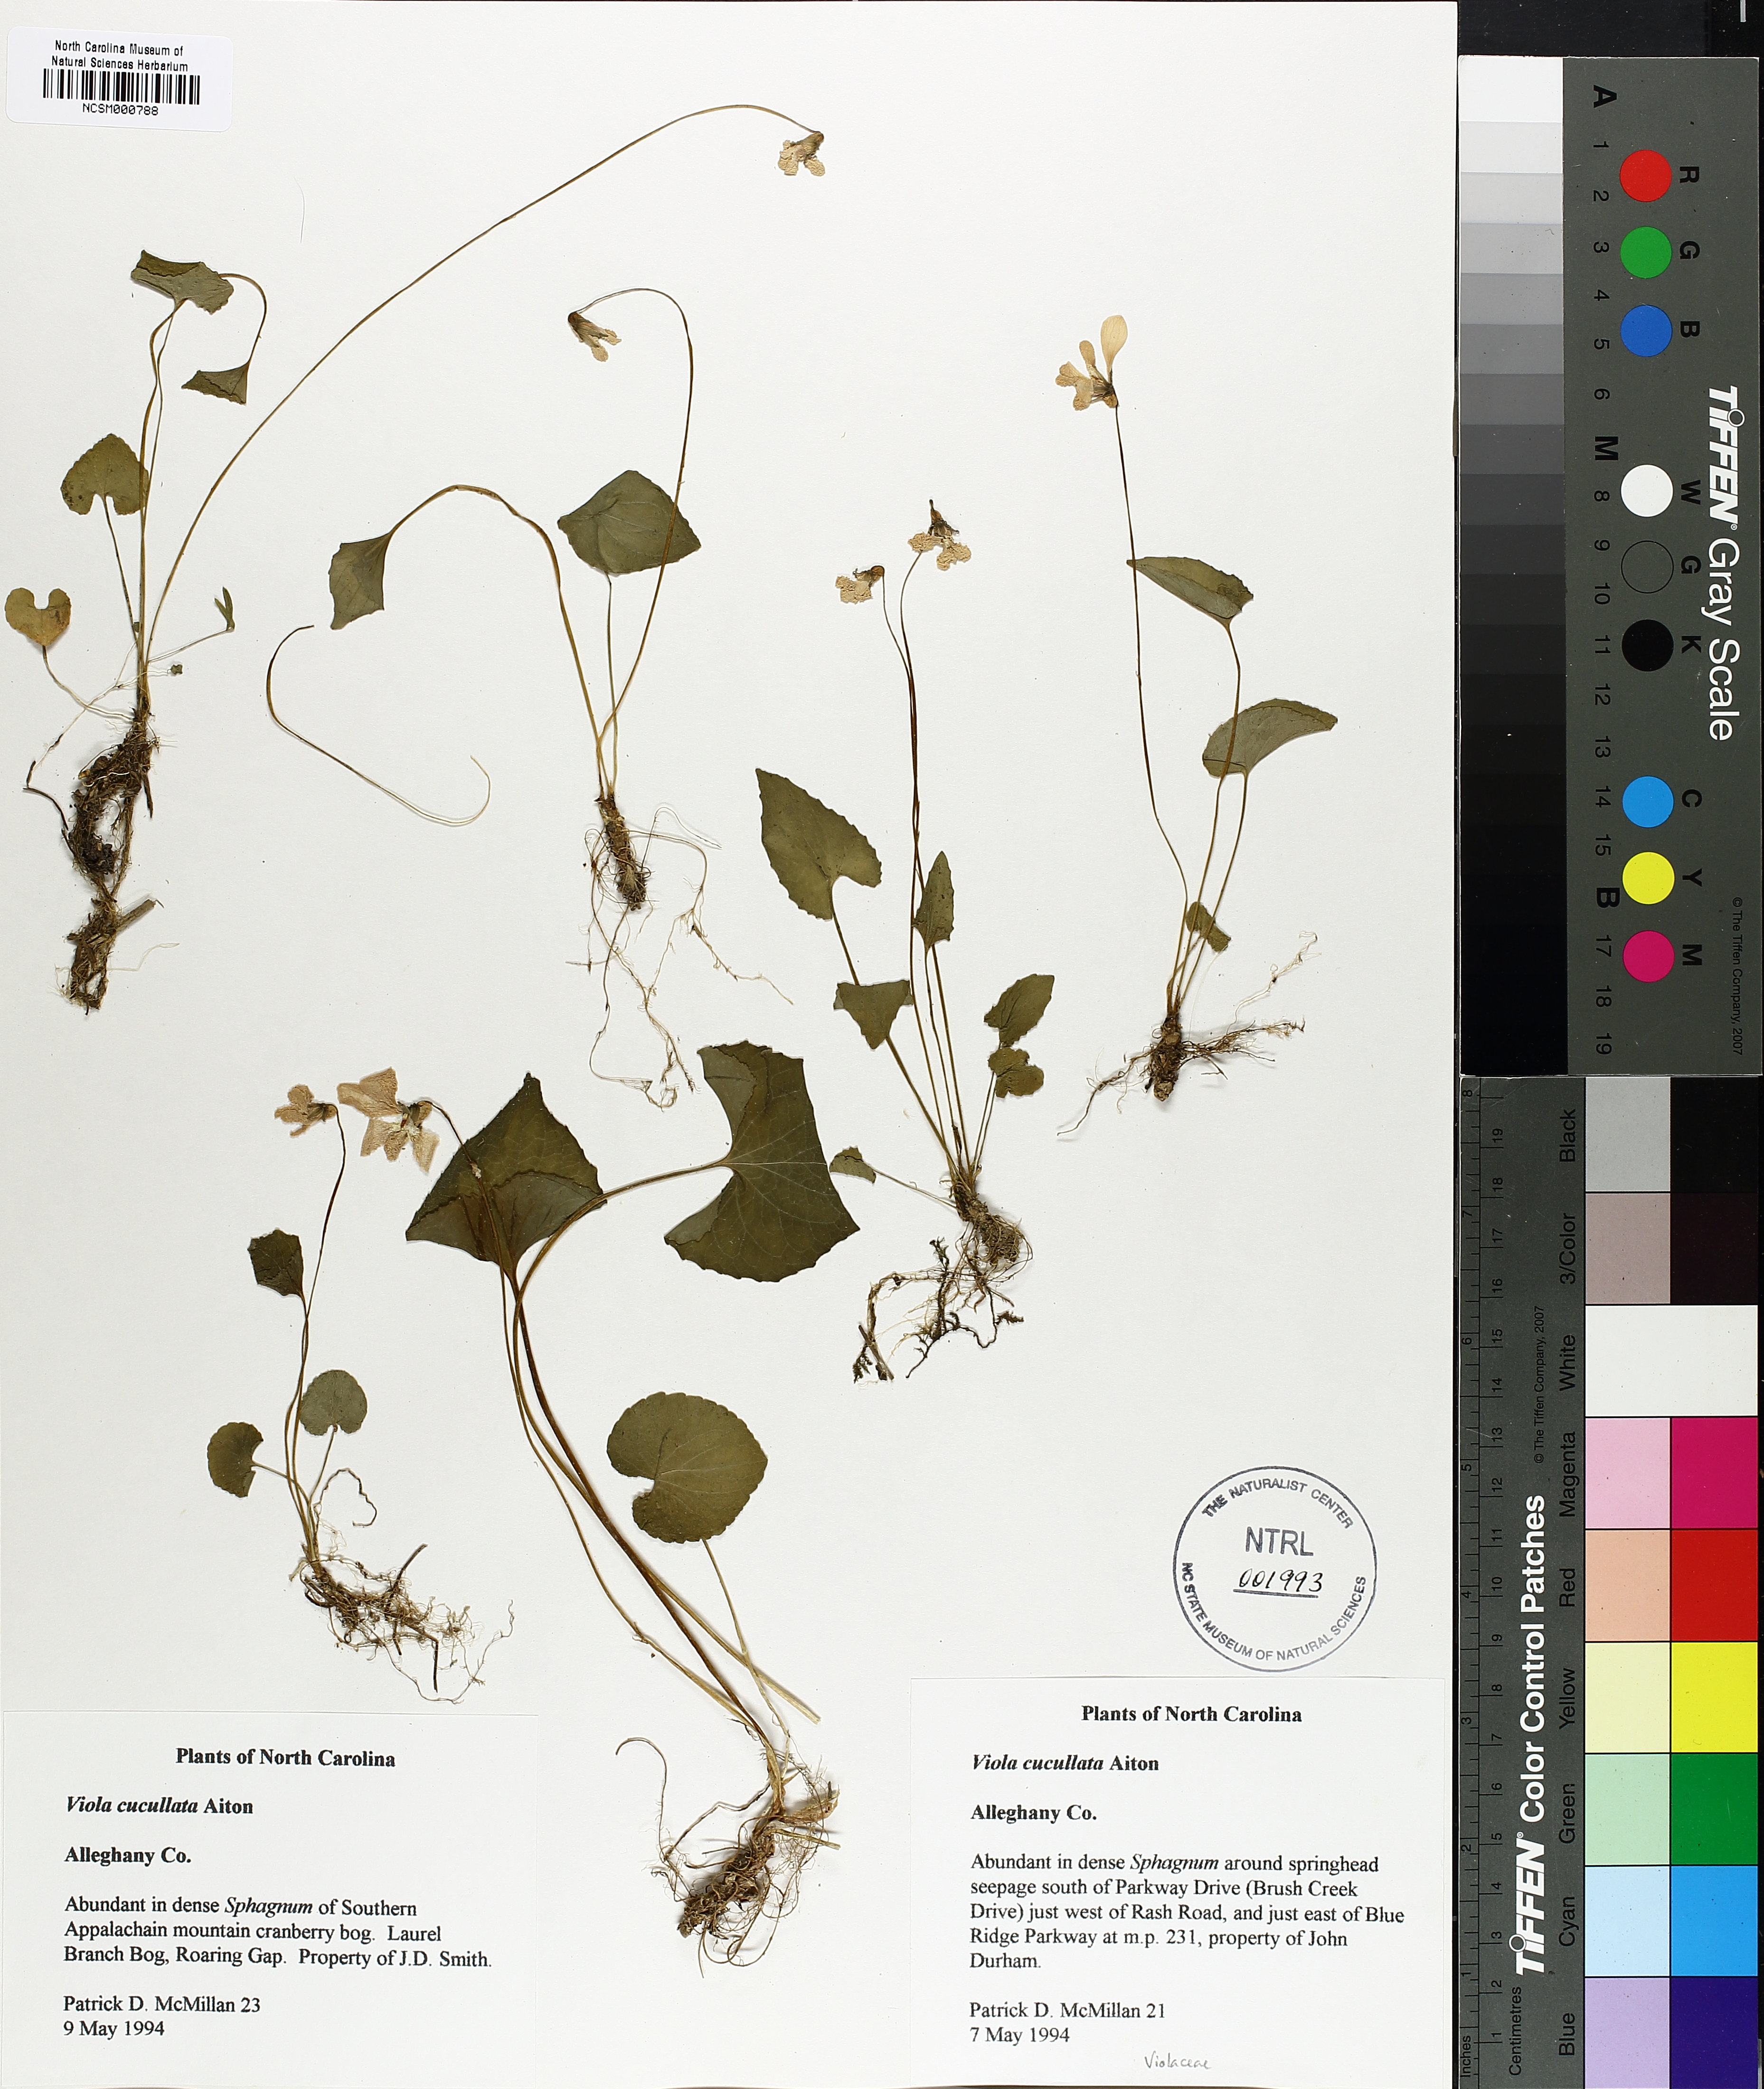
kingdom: Plantae
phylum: Tracheophyta
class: Magnoliopsida
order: Malpighiales
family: Violaceae
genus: Viola
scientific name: Viola cucullata
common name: Marsh blue violet
